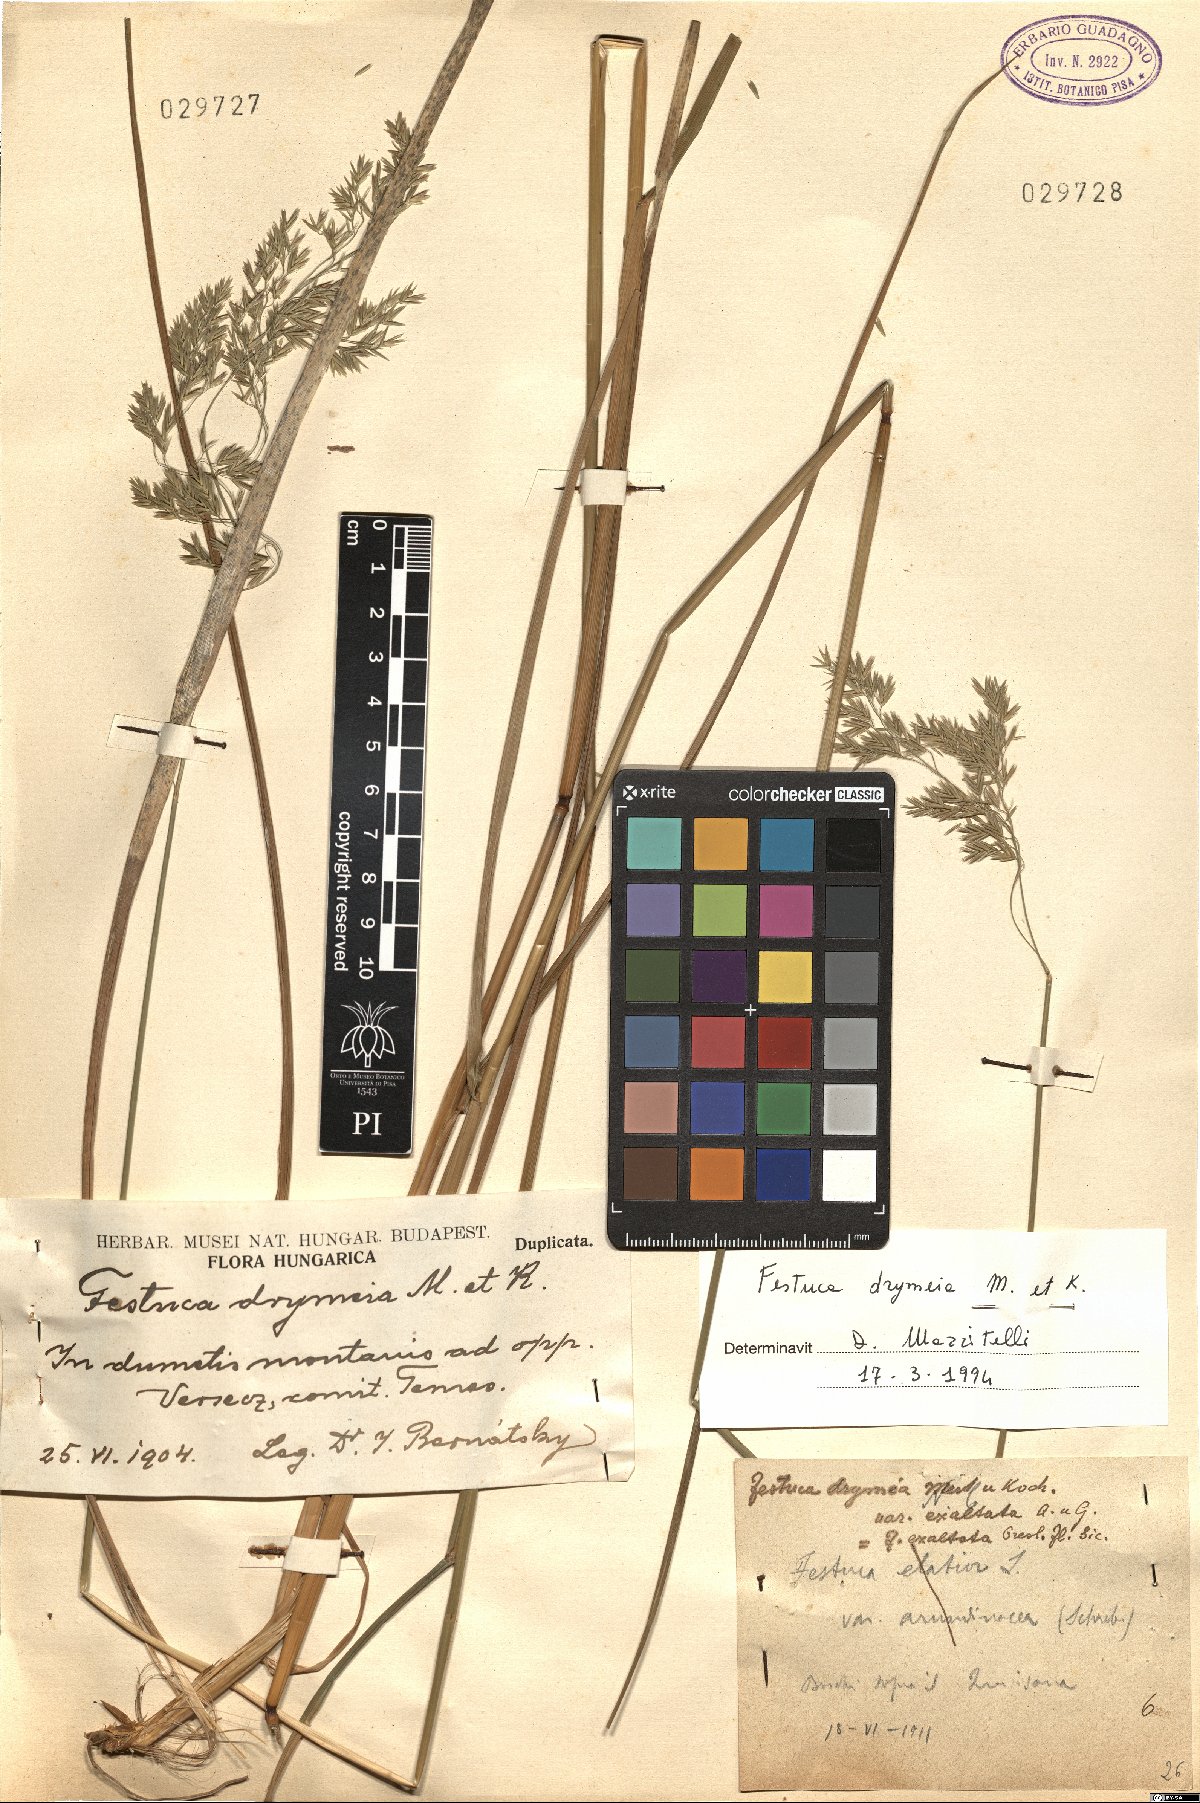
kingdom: Plantae
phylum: Tracheophyta
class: Liliopsida
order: Poales
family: Poaceae
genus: Festuca
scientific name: Festuca drymeja
